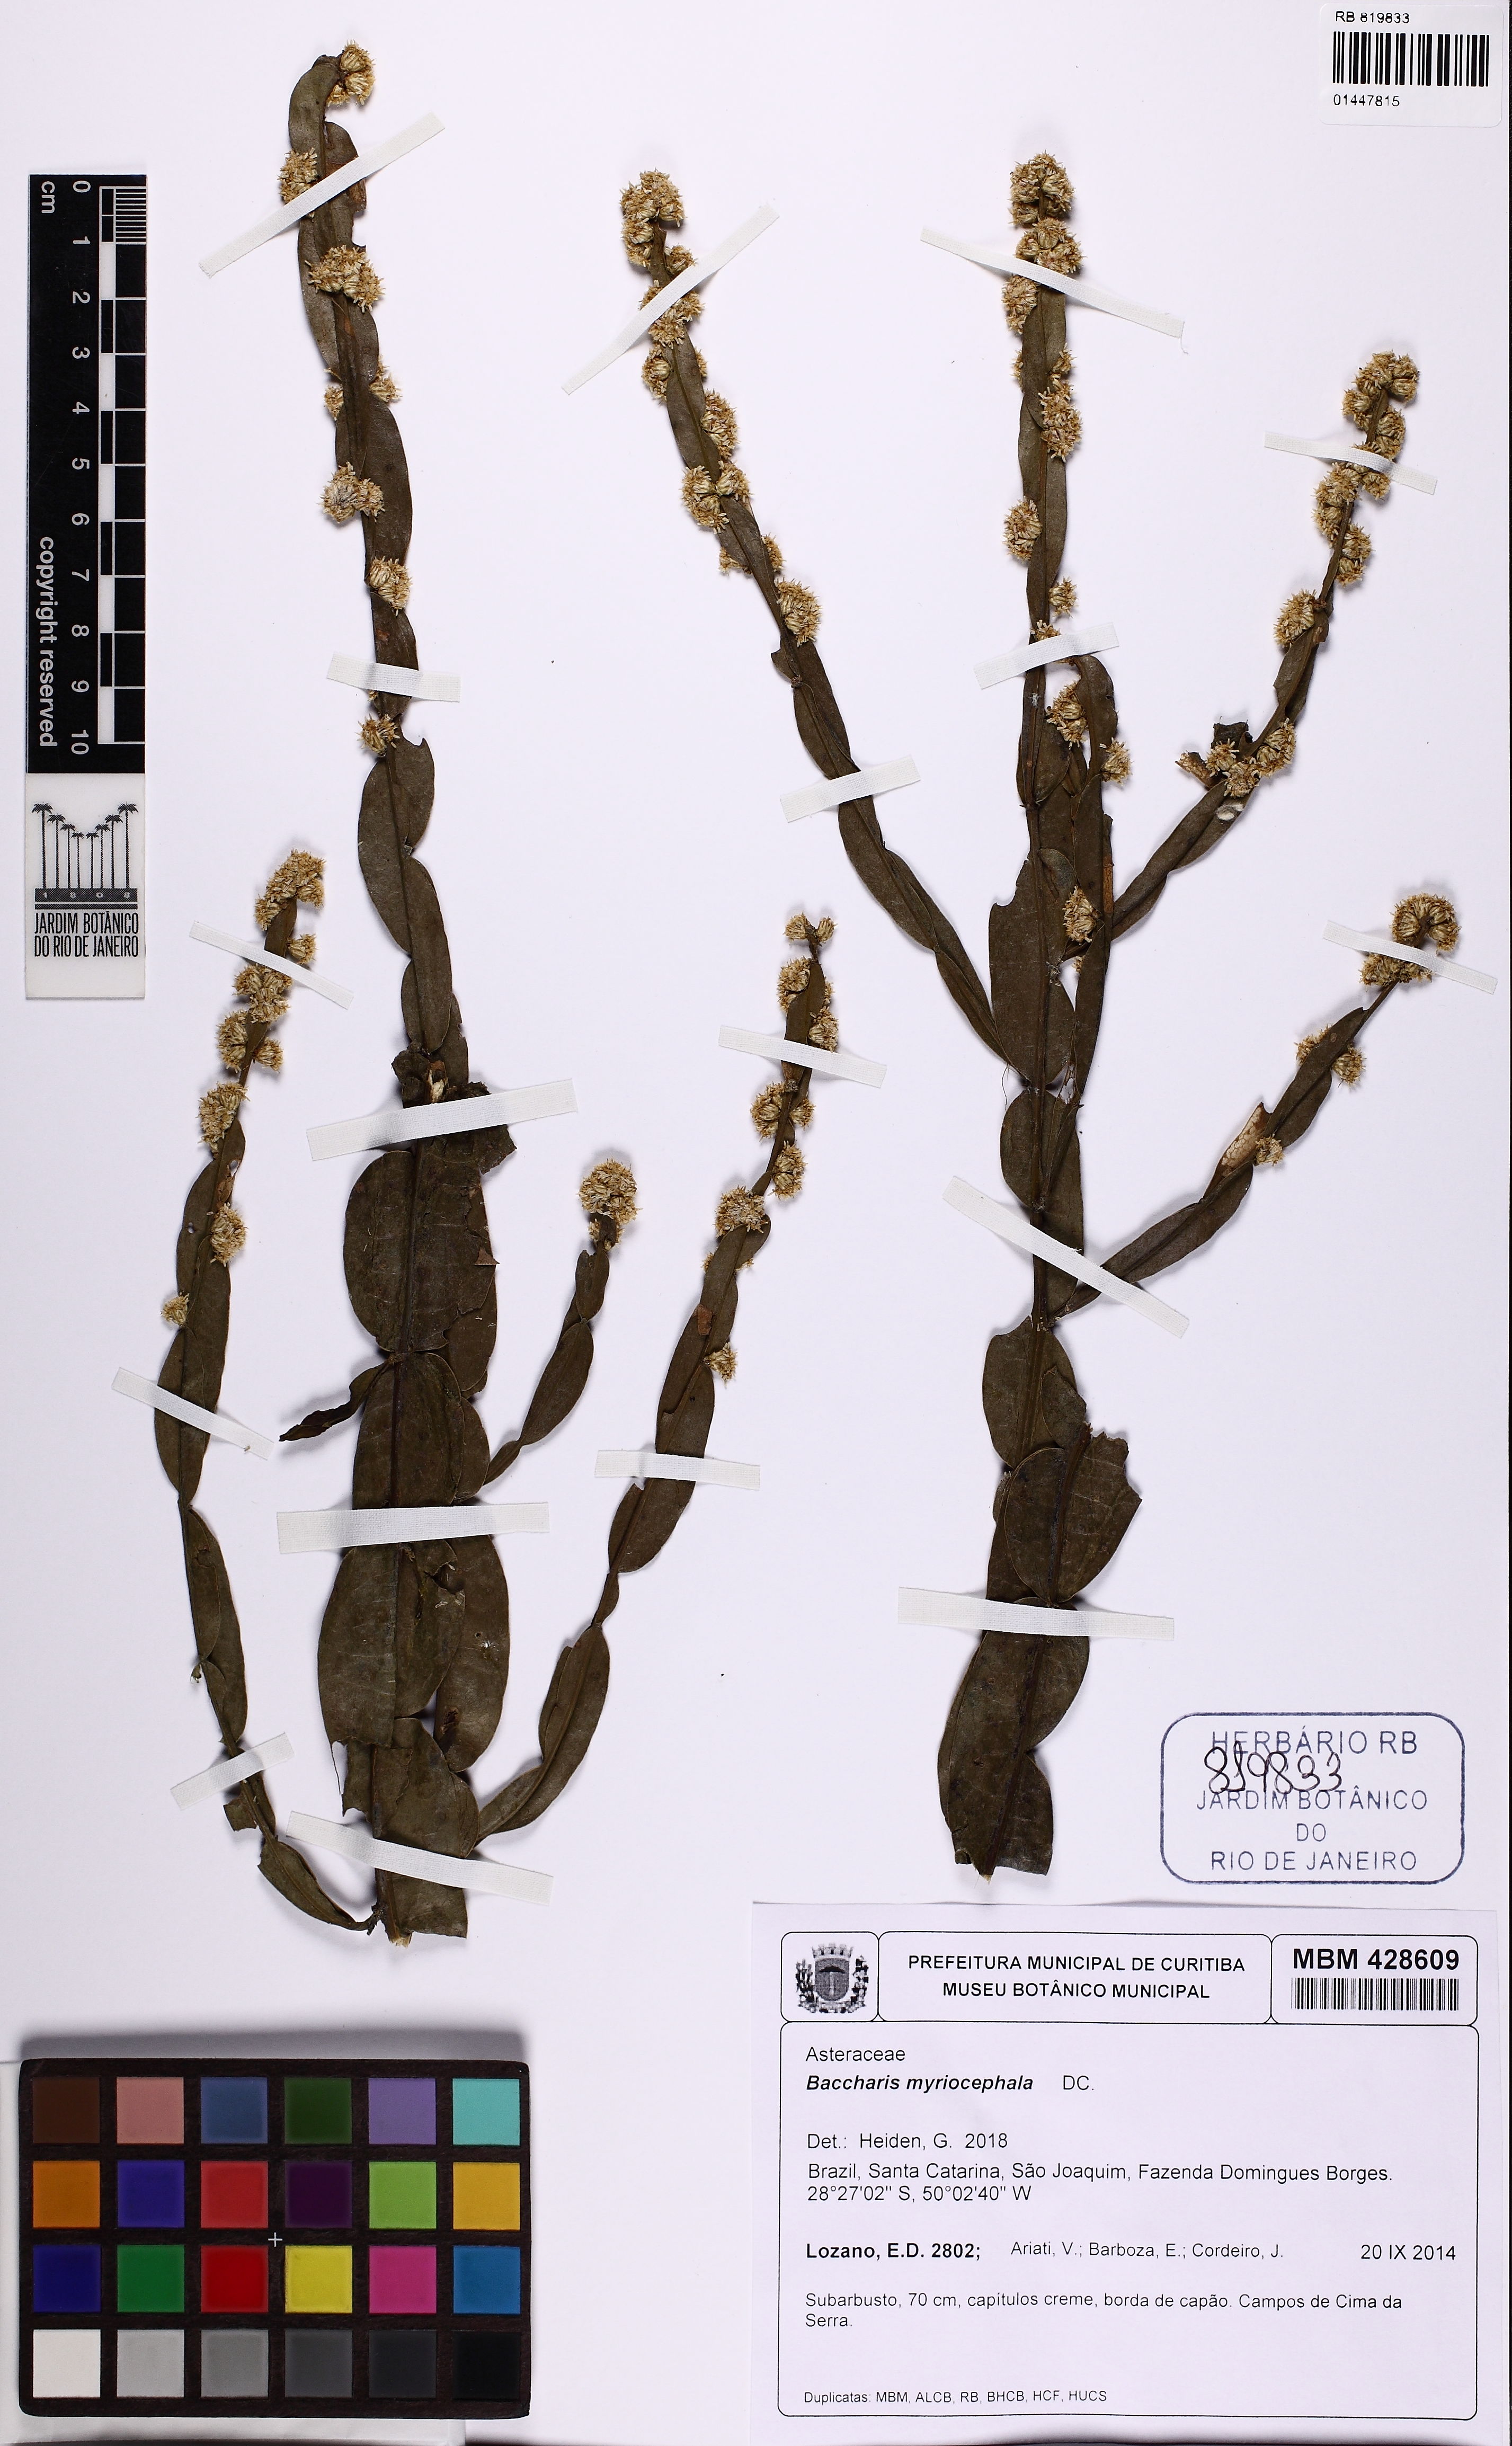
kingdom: Plantae
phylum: Tracheophyta
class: Magnoliopsida
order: Asterales
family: Asteraceae
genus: Baccharis
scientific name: Baccharis myriocephala
